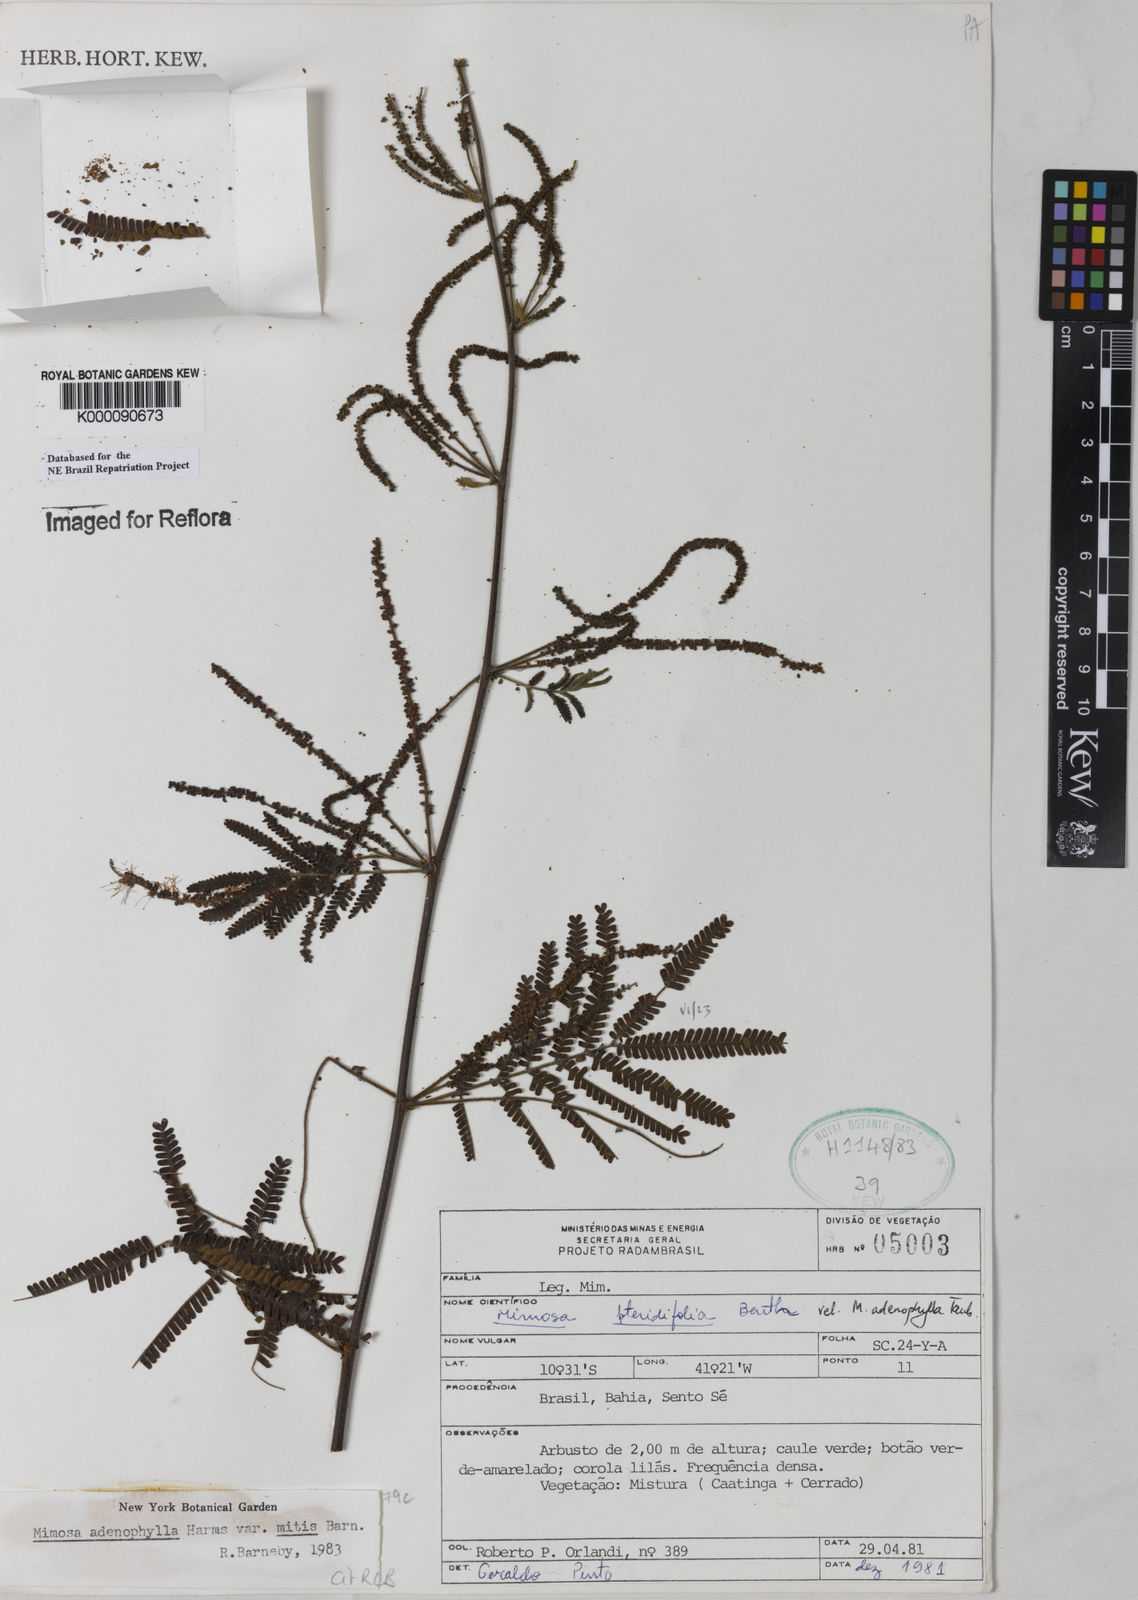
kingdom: Plantae
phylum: Tracheophyta
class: Magnoliopsida
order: Fabales
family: Fabaceae
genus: Mimosa
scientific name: Mimosa pteridifolia
